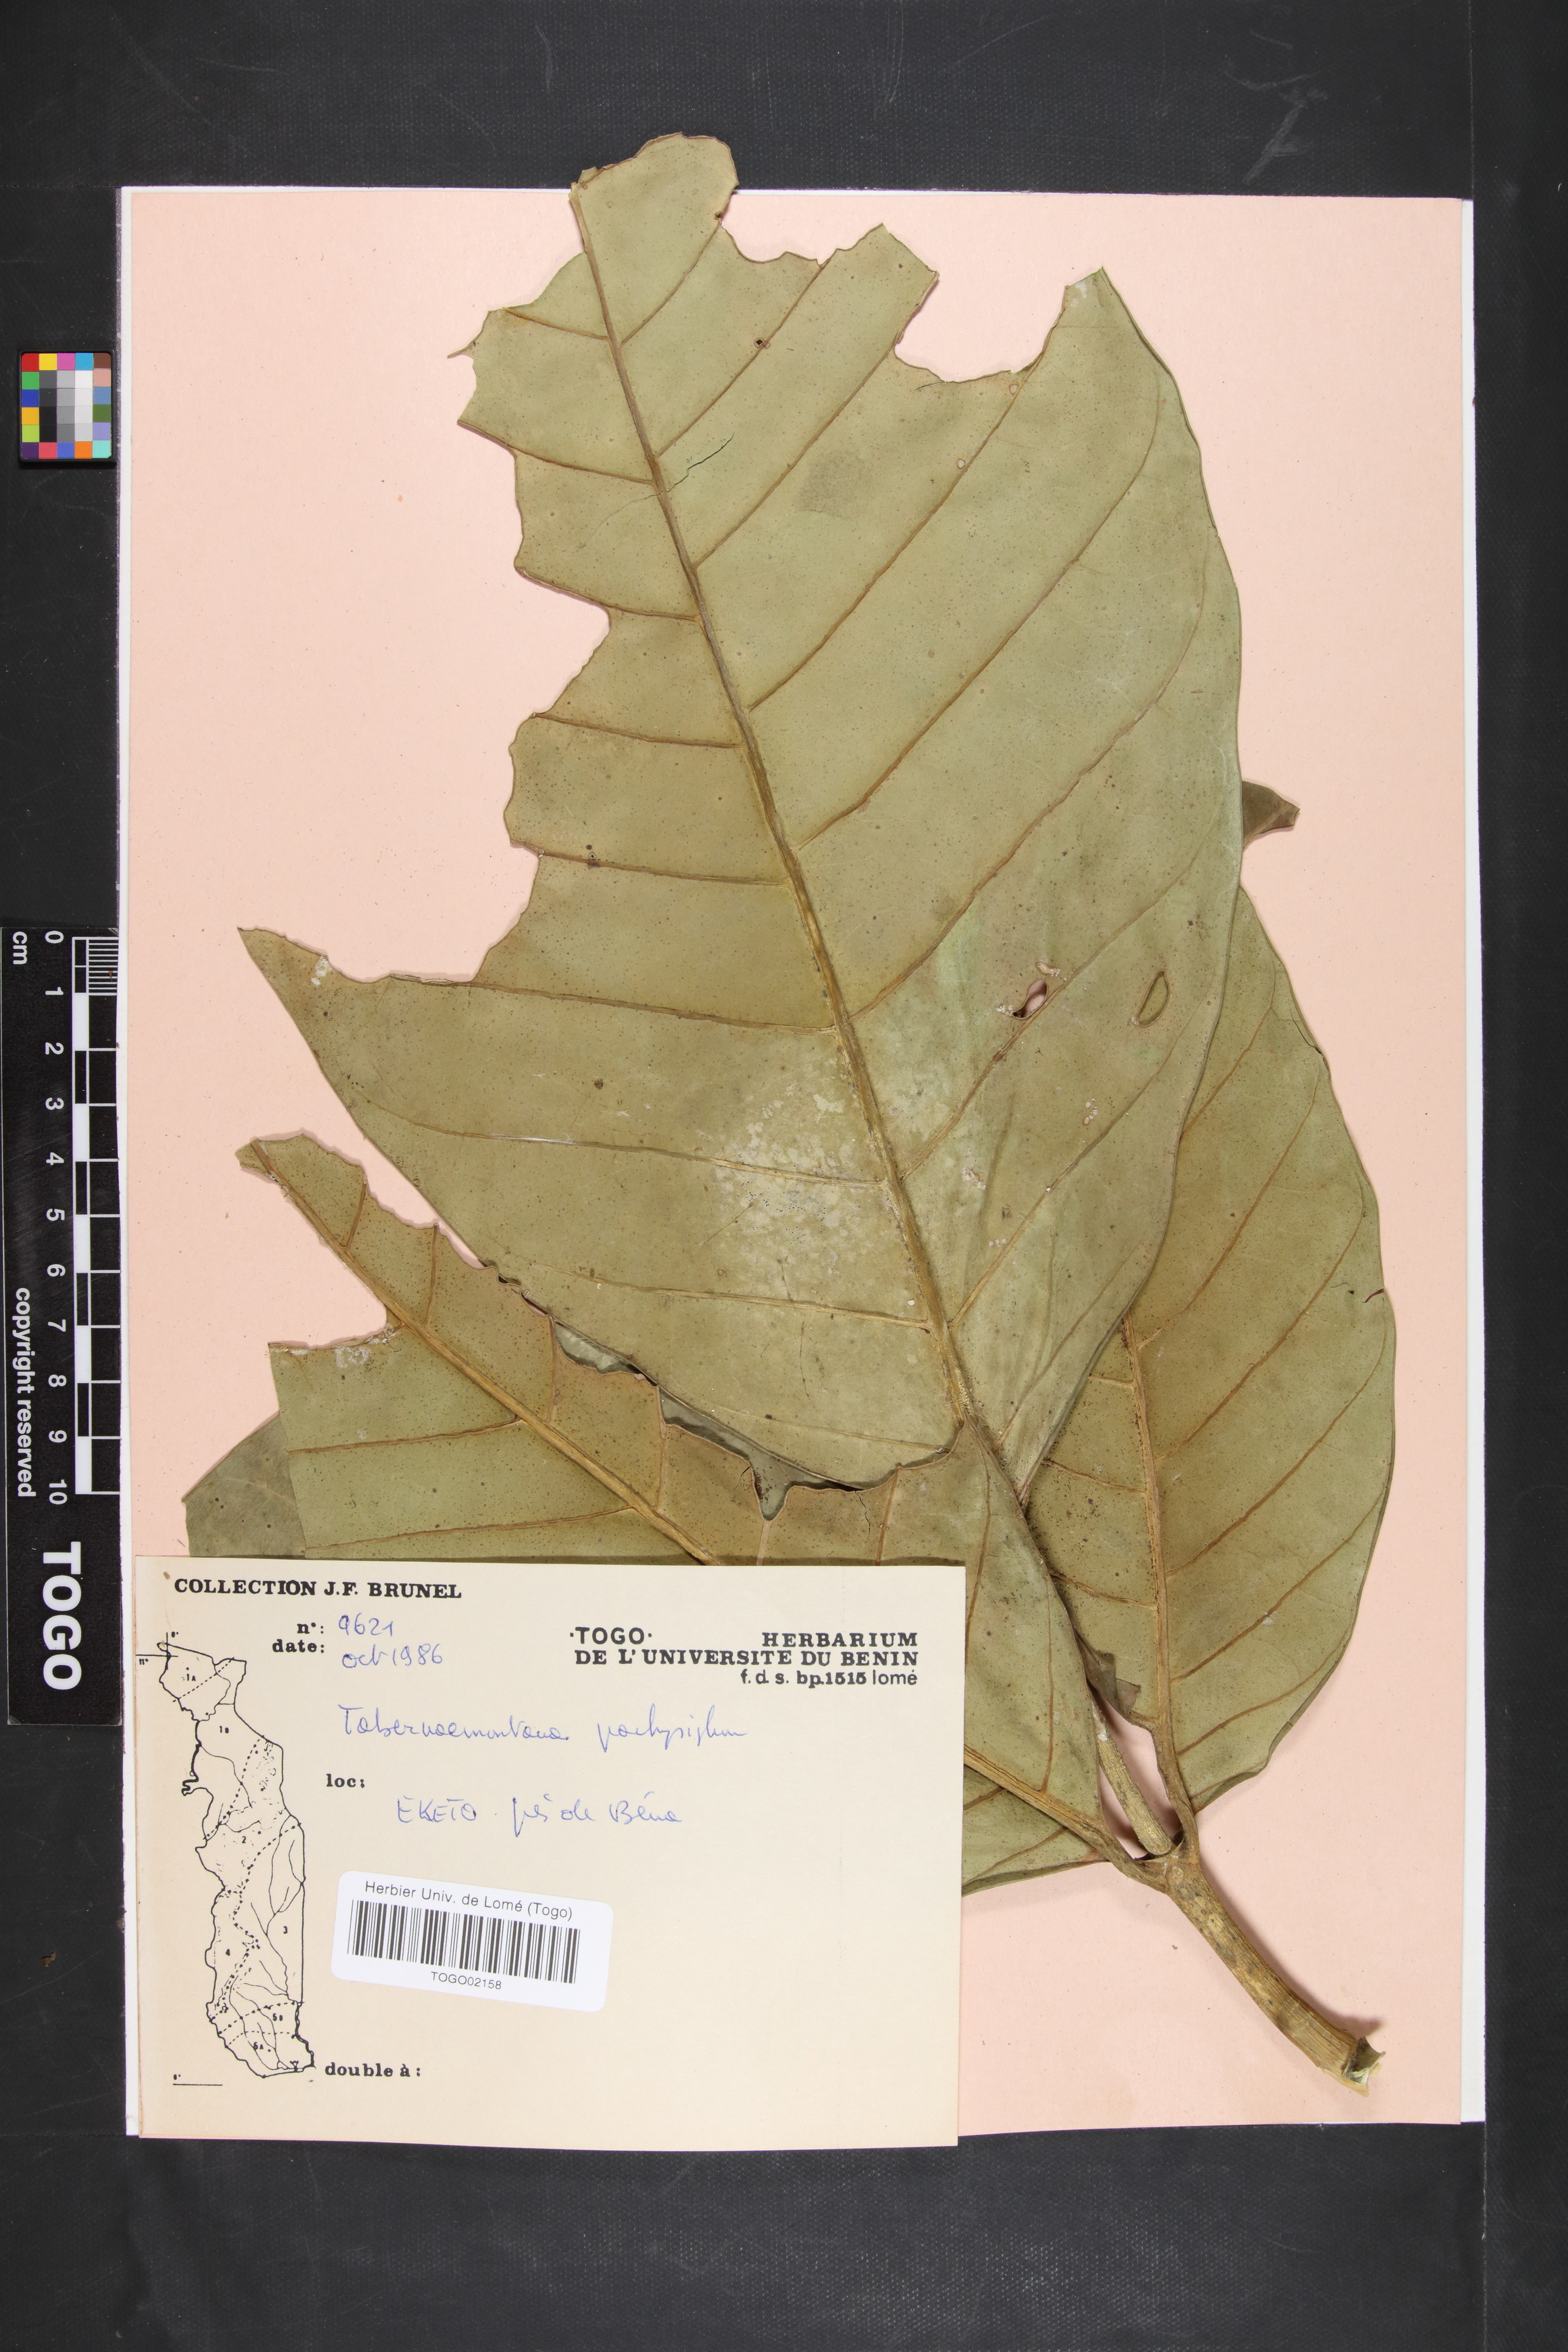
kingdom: Plantae
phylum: Tracheophyta
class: Magnoliopsida
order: Gentianales
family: Apocynaceae
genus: Tabernaemontana
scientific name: Tabernaemontana pachysiphon
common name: Giant pinwheel-flower
